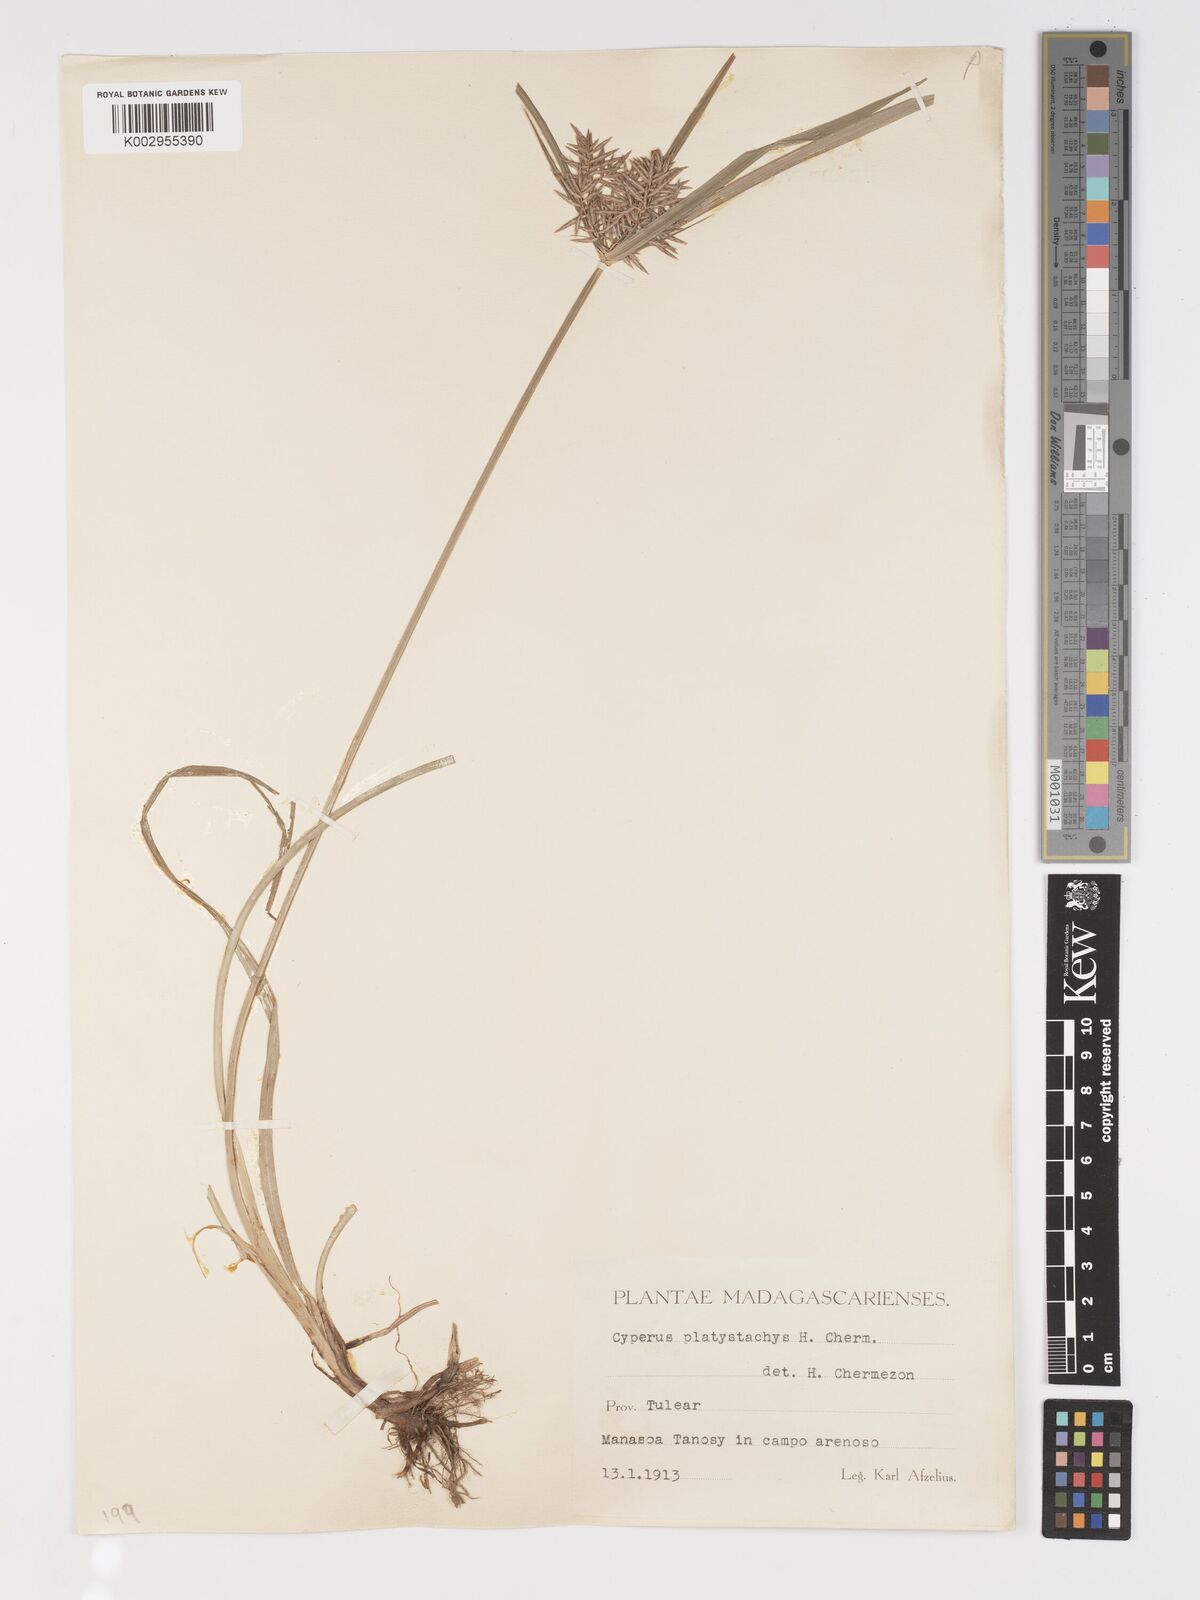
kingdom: Plantae
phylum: Tracheophyta
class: Liliopsida
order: Poales
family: Cyperaceae
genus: Cyperus
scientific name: Cyperus tuberosus
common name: Nut grass
